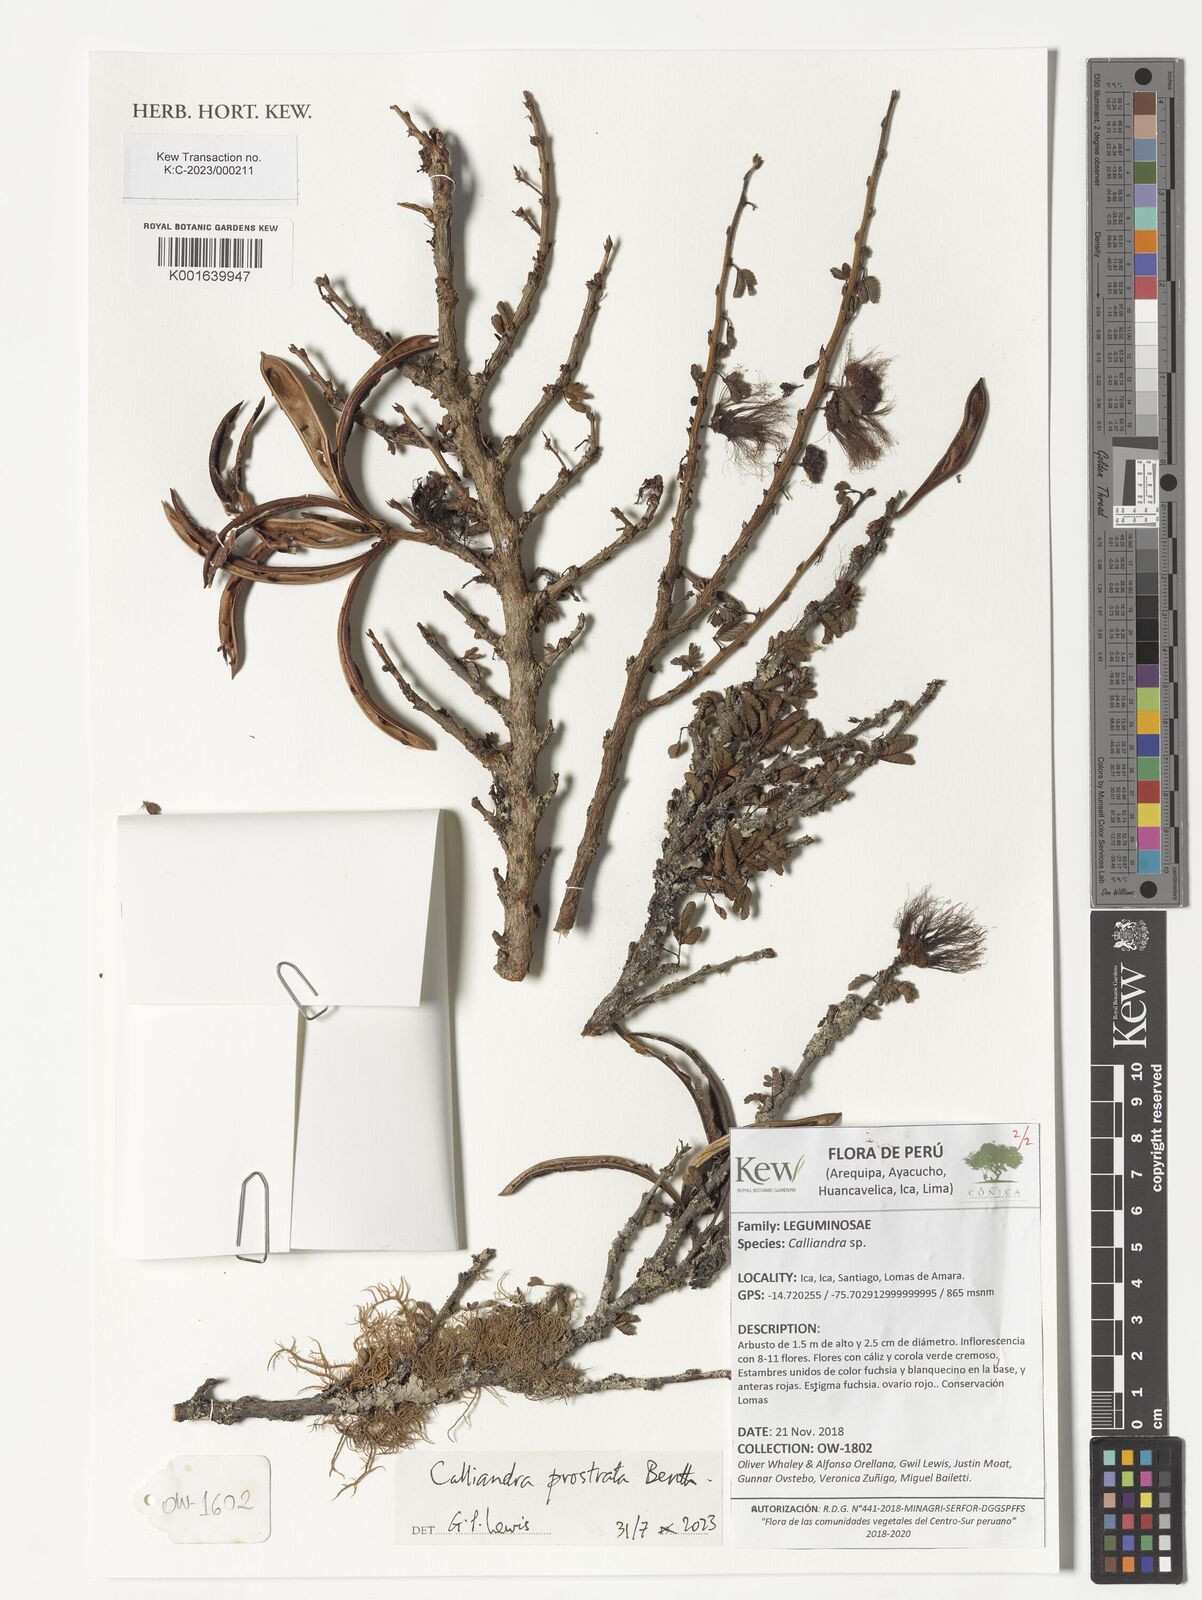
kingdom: Plantae
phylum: Tracheophyta
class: Magnoliopsida
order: Fabales
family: Fabaceae
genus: Calliandra
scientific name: Calliandra taxifolia
